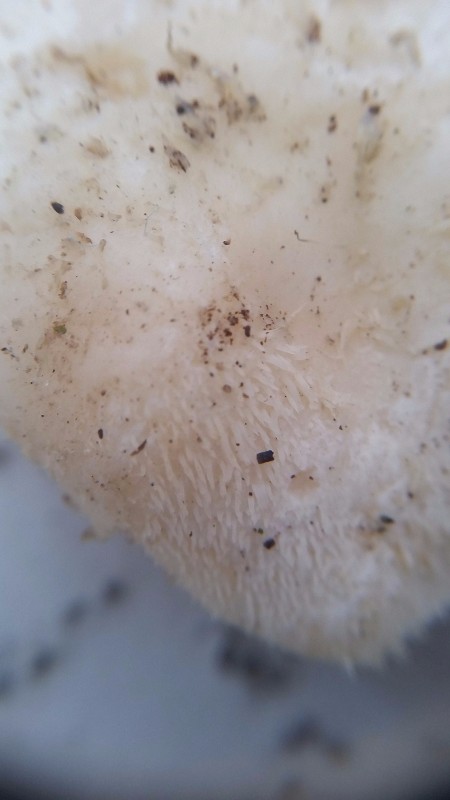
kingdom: Fungi
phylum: Basidiomycota
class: Agaricomycetes
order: Russulales
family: Hericiaceae
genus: Hericium
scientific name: Hericium cirrhatum
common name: børstepigsvamp
